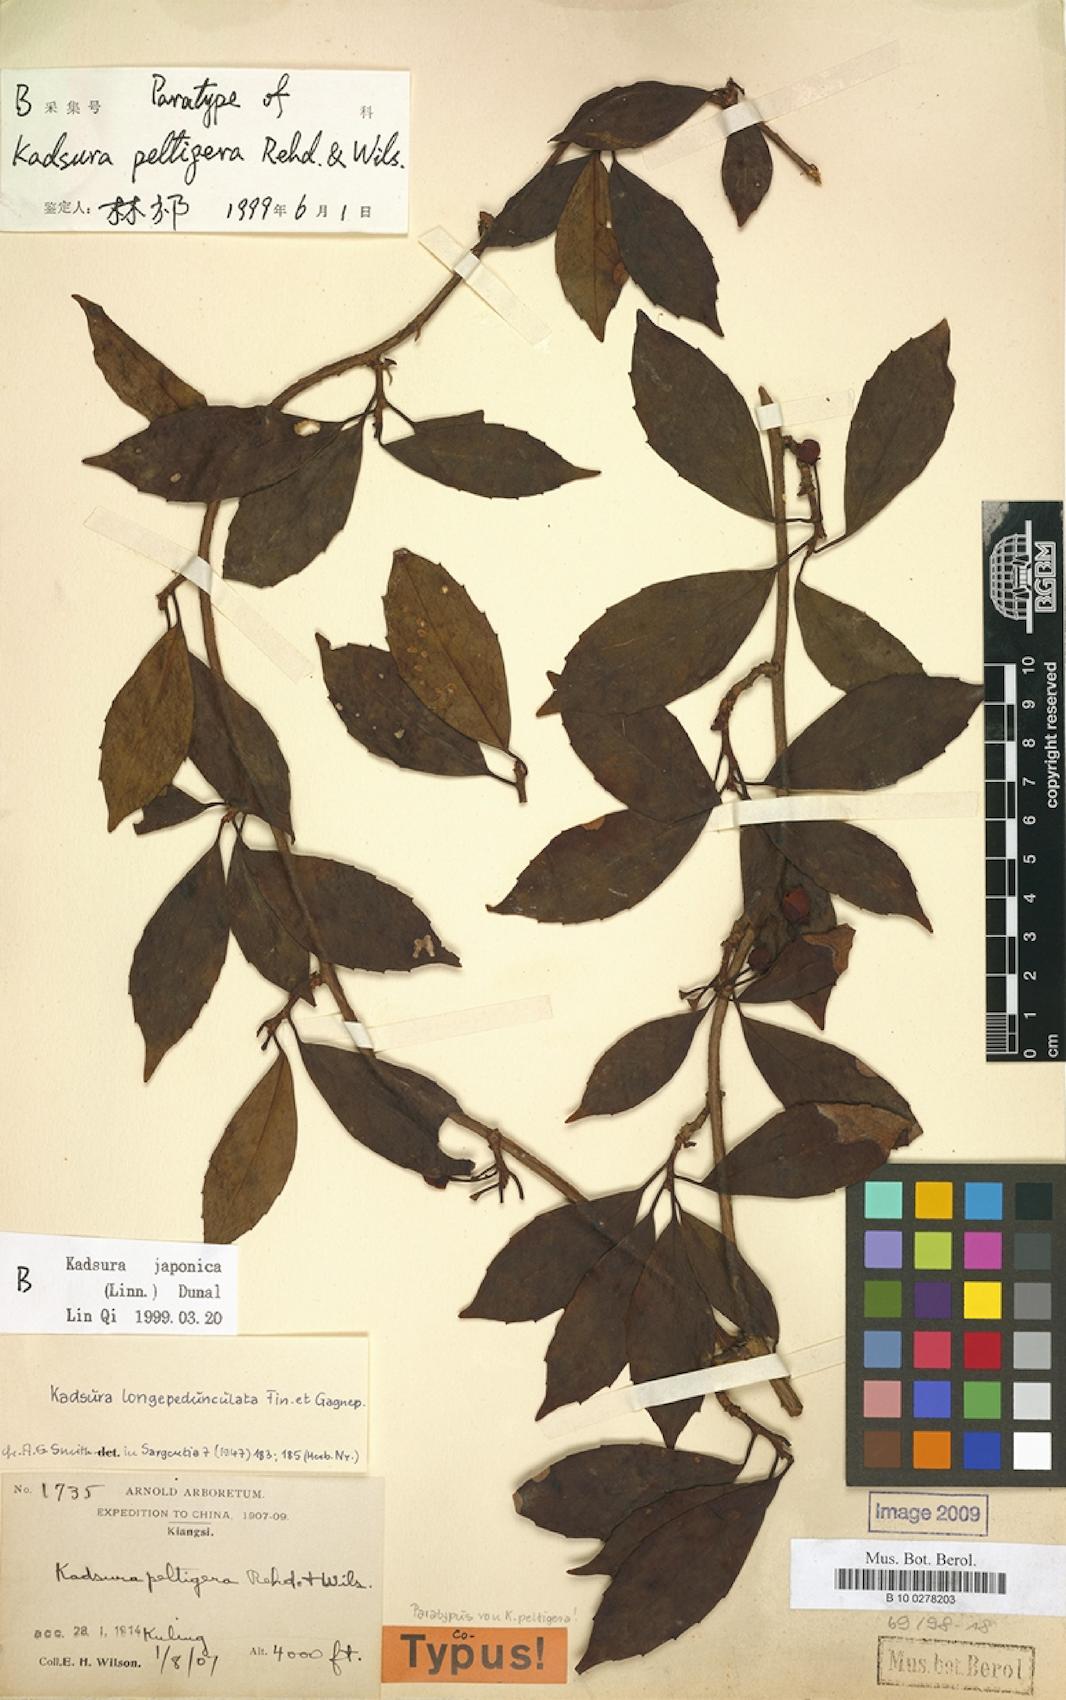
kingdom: Plantae
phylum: Tracheophyta
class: Magnoliopsida
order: Austrobaileyales
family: Schisandraceae
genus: Kadsura
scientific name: Kadsura japonica
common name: Japanese kadsura
